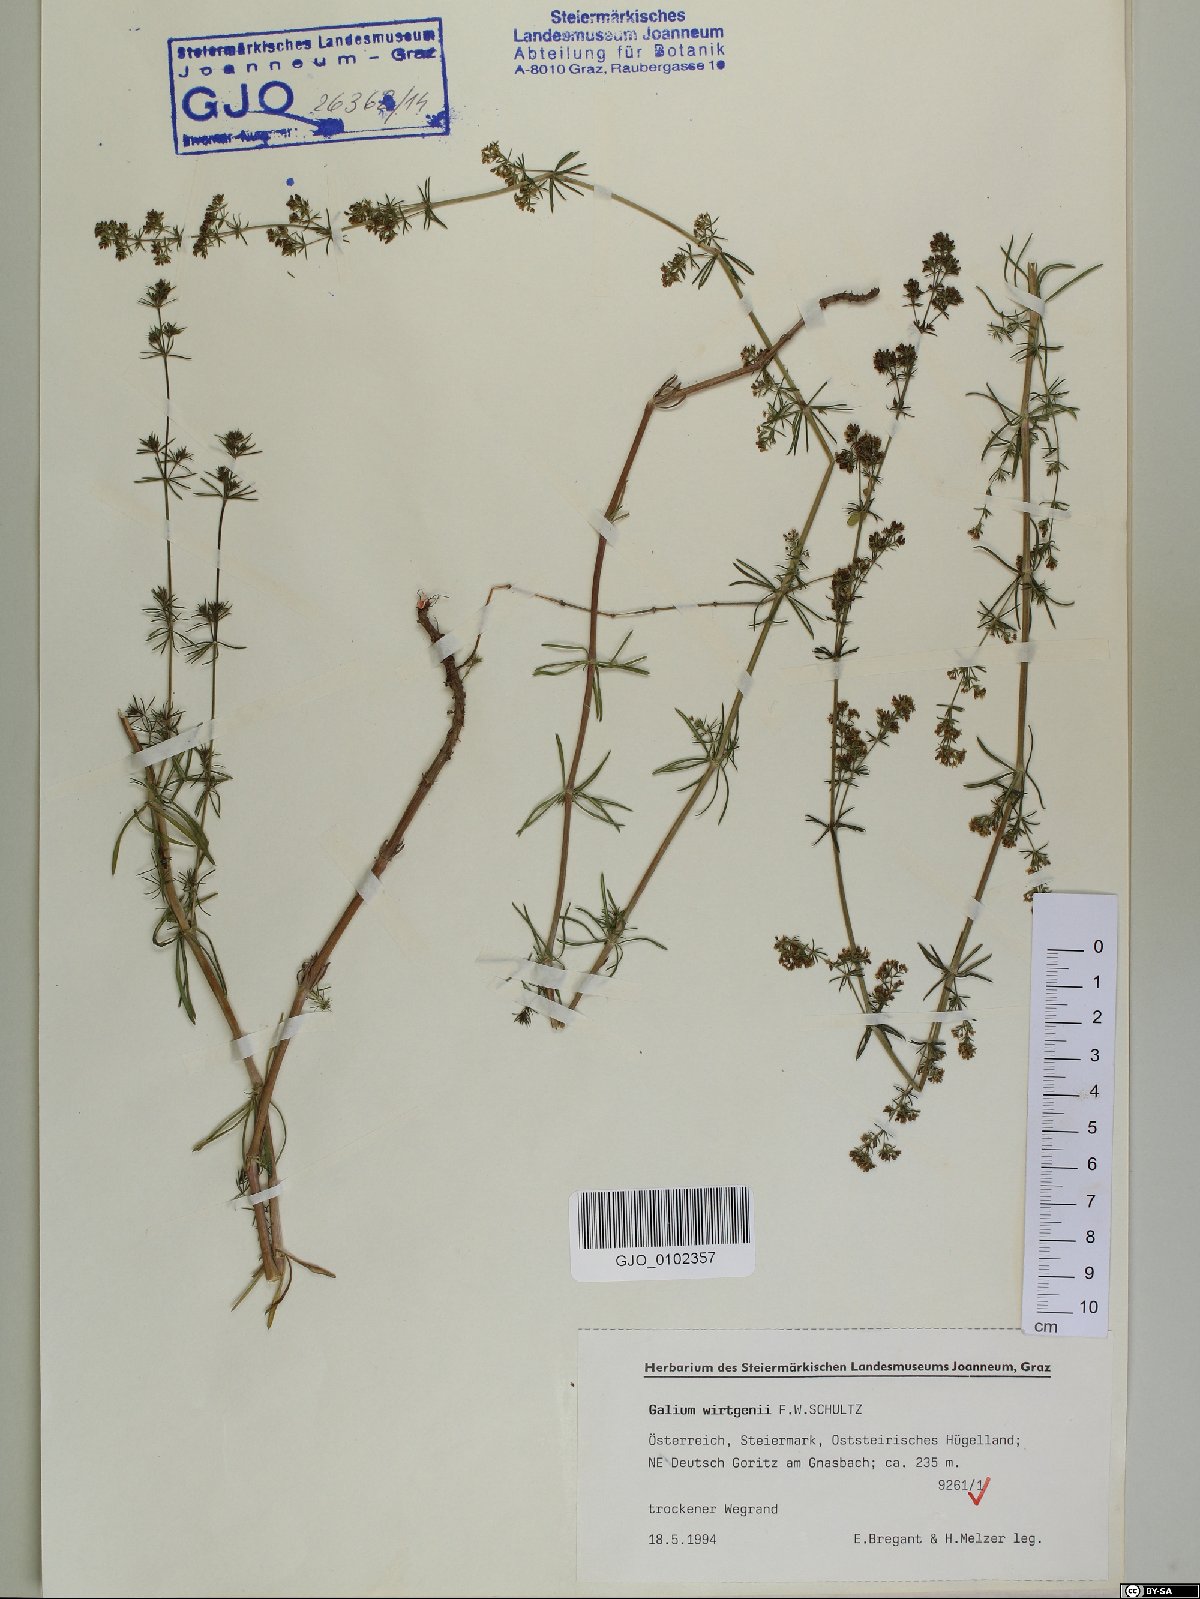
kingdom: Plantae
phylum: Tracheophyta
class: Magnoliopsida
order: Gentianales
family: Rubiaceae
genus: Galium
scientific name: Galium verum
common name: Lady's bedstraw
